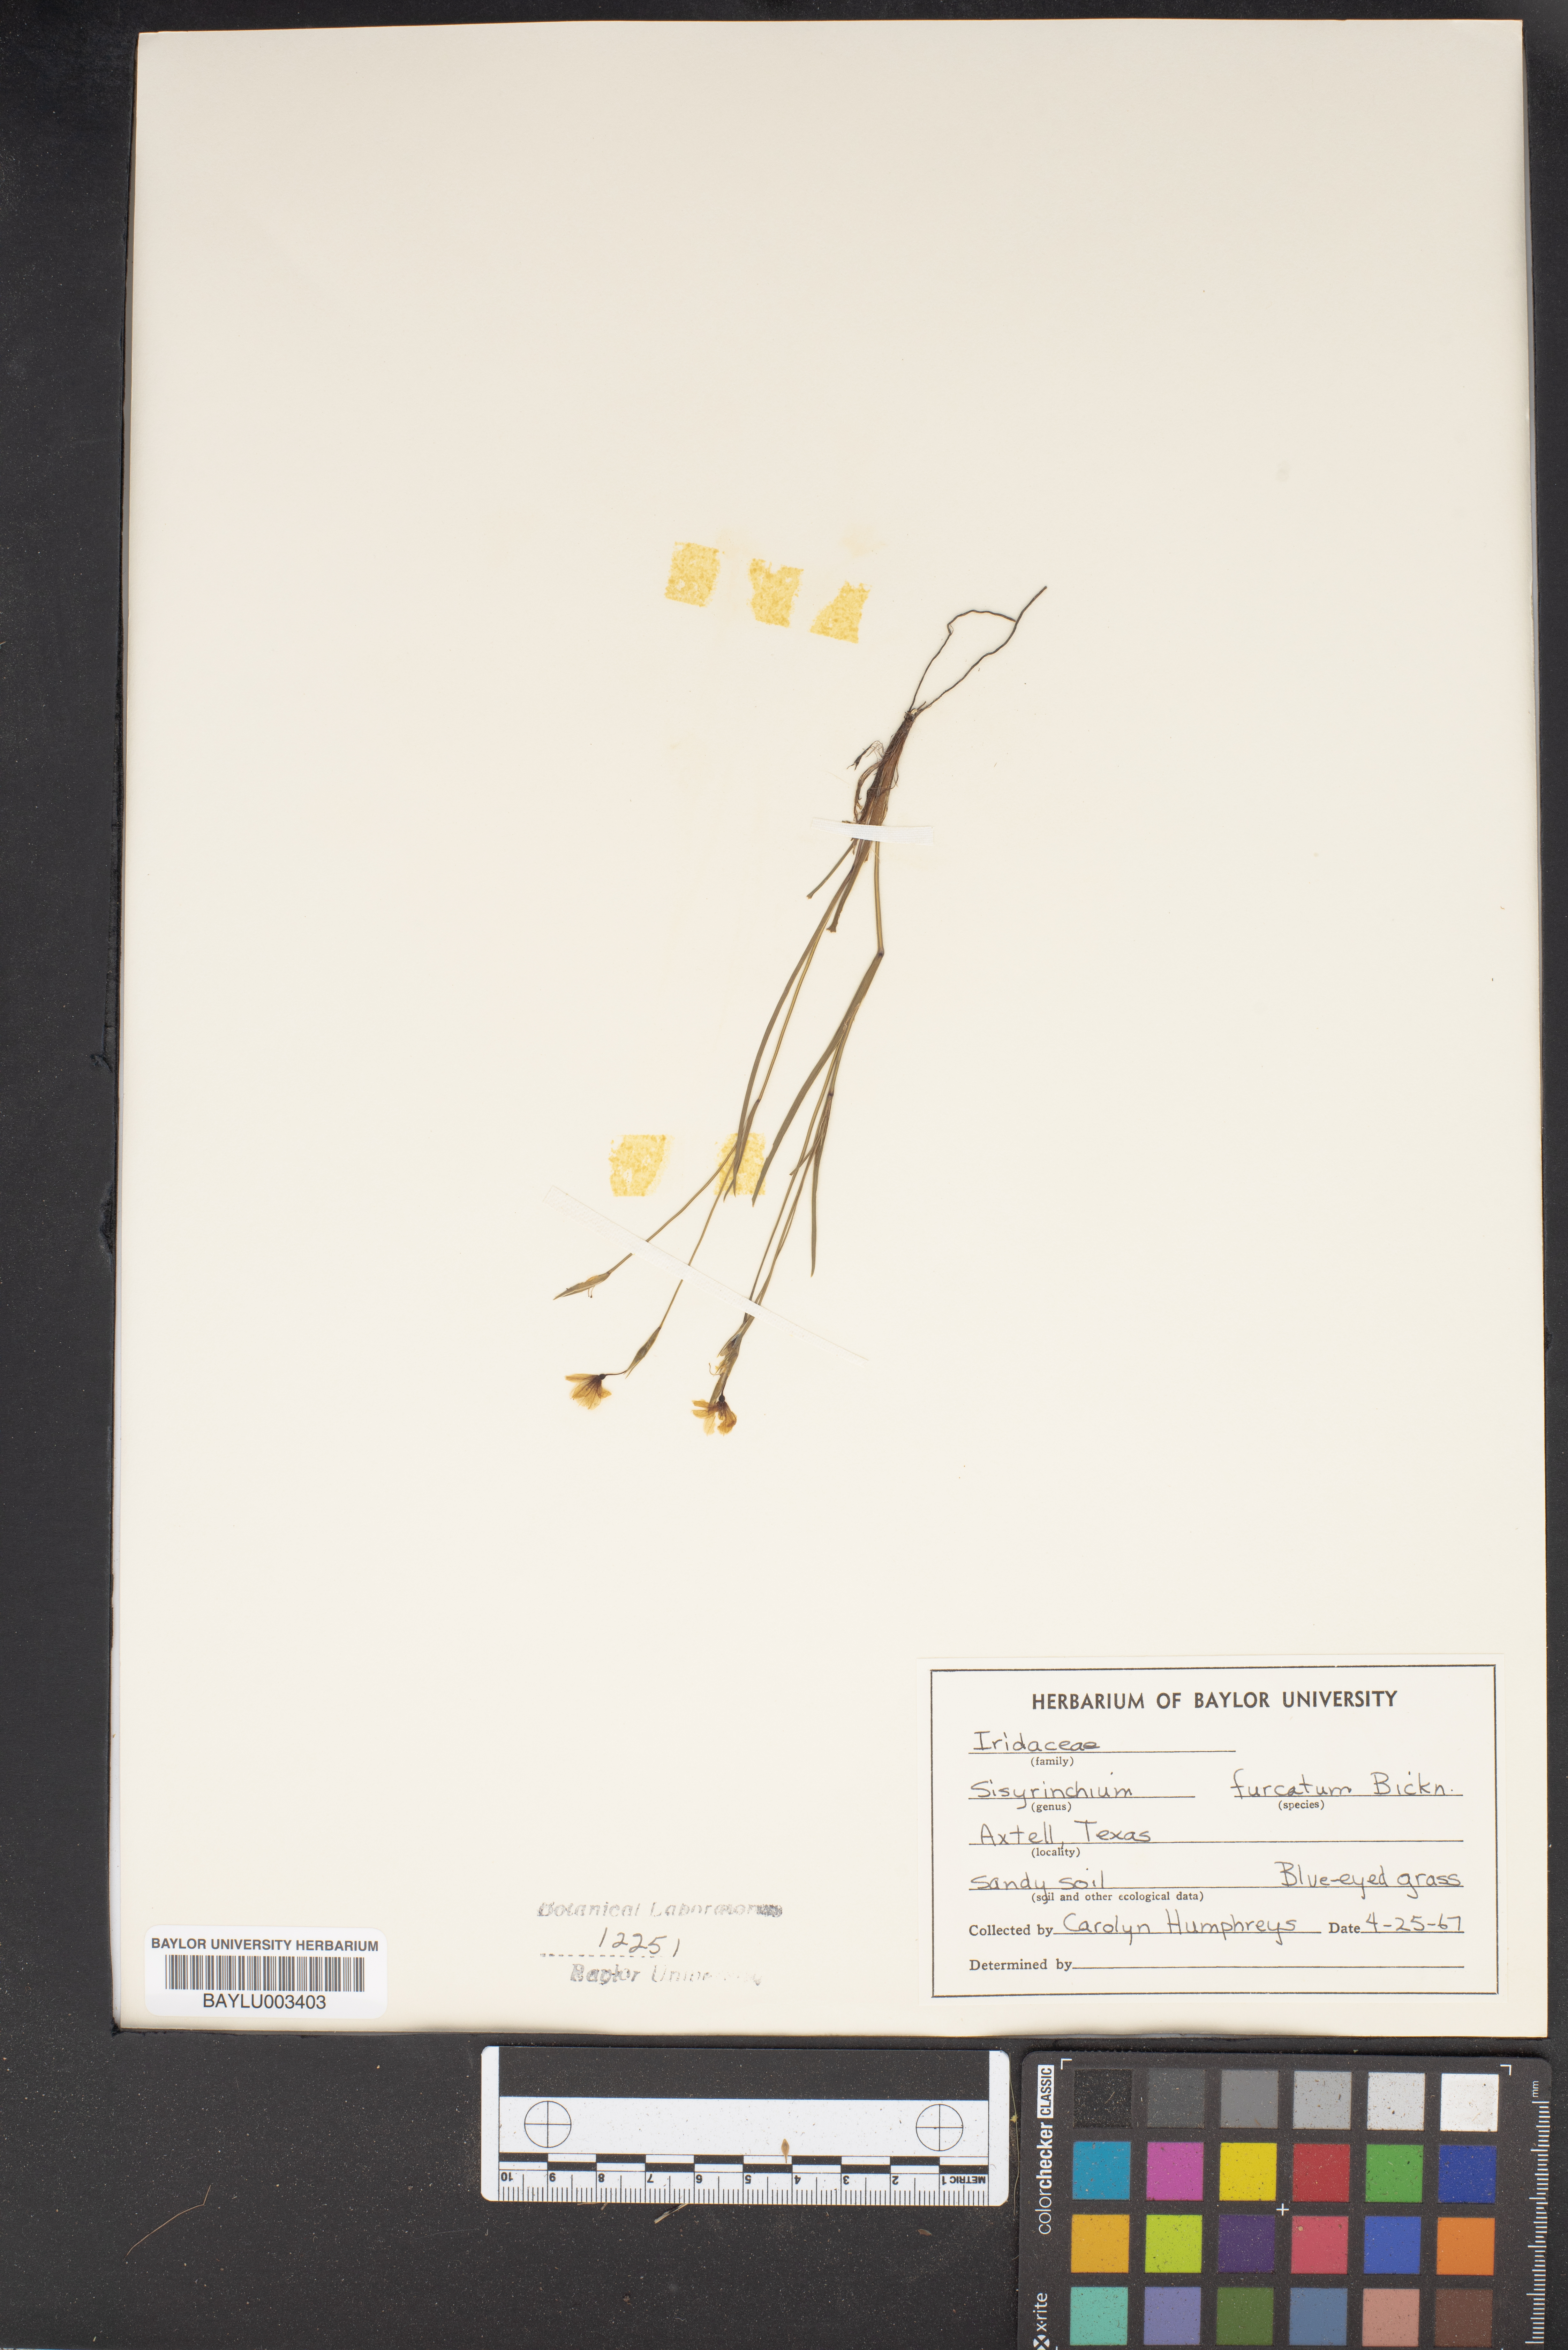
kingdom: Plantae
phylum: Tracheophyta
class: Liliopsida
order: Asparagales
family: Iridaceae
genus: Sisyrinchium
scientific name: Sisyrinchium fuscatum
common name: Coastal plain blue-eyed-grass
